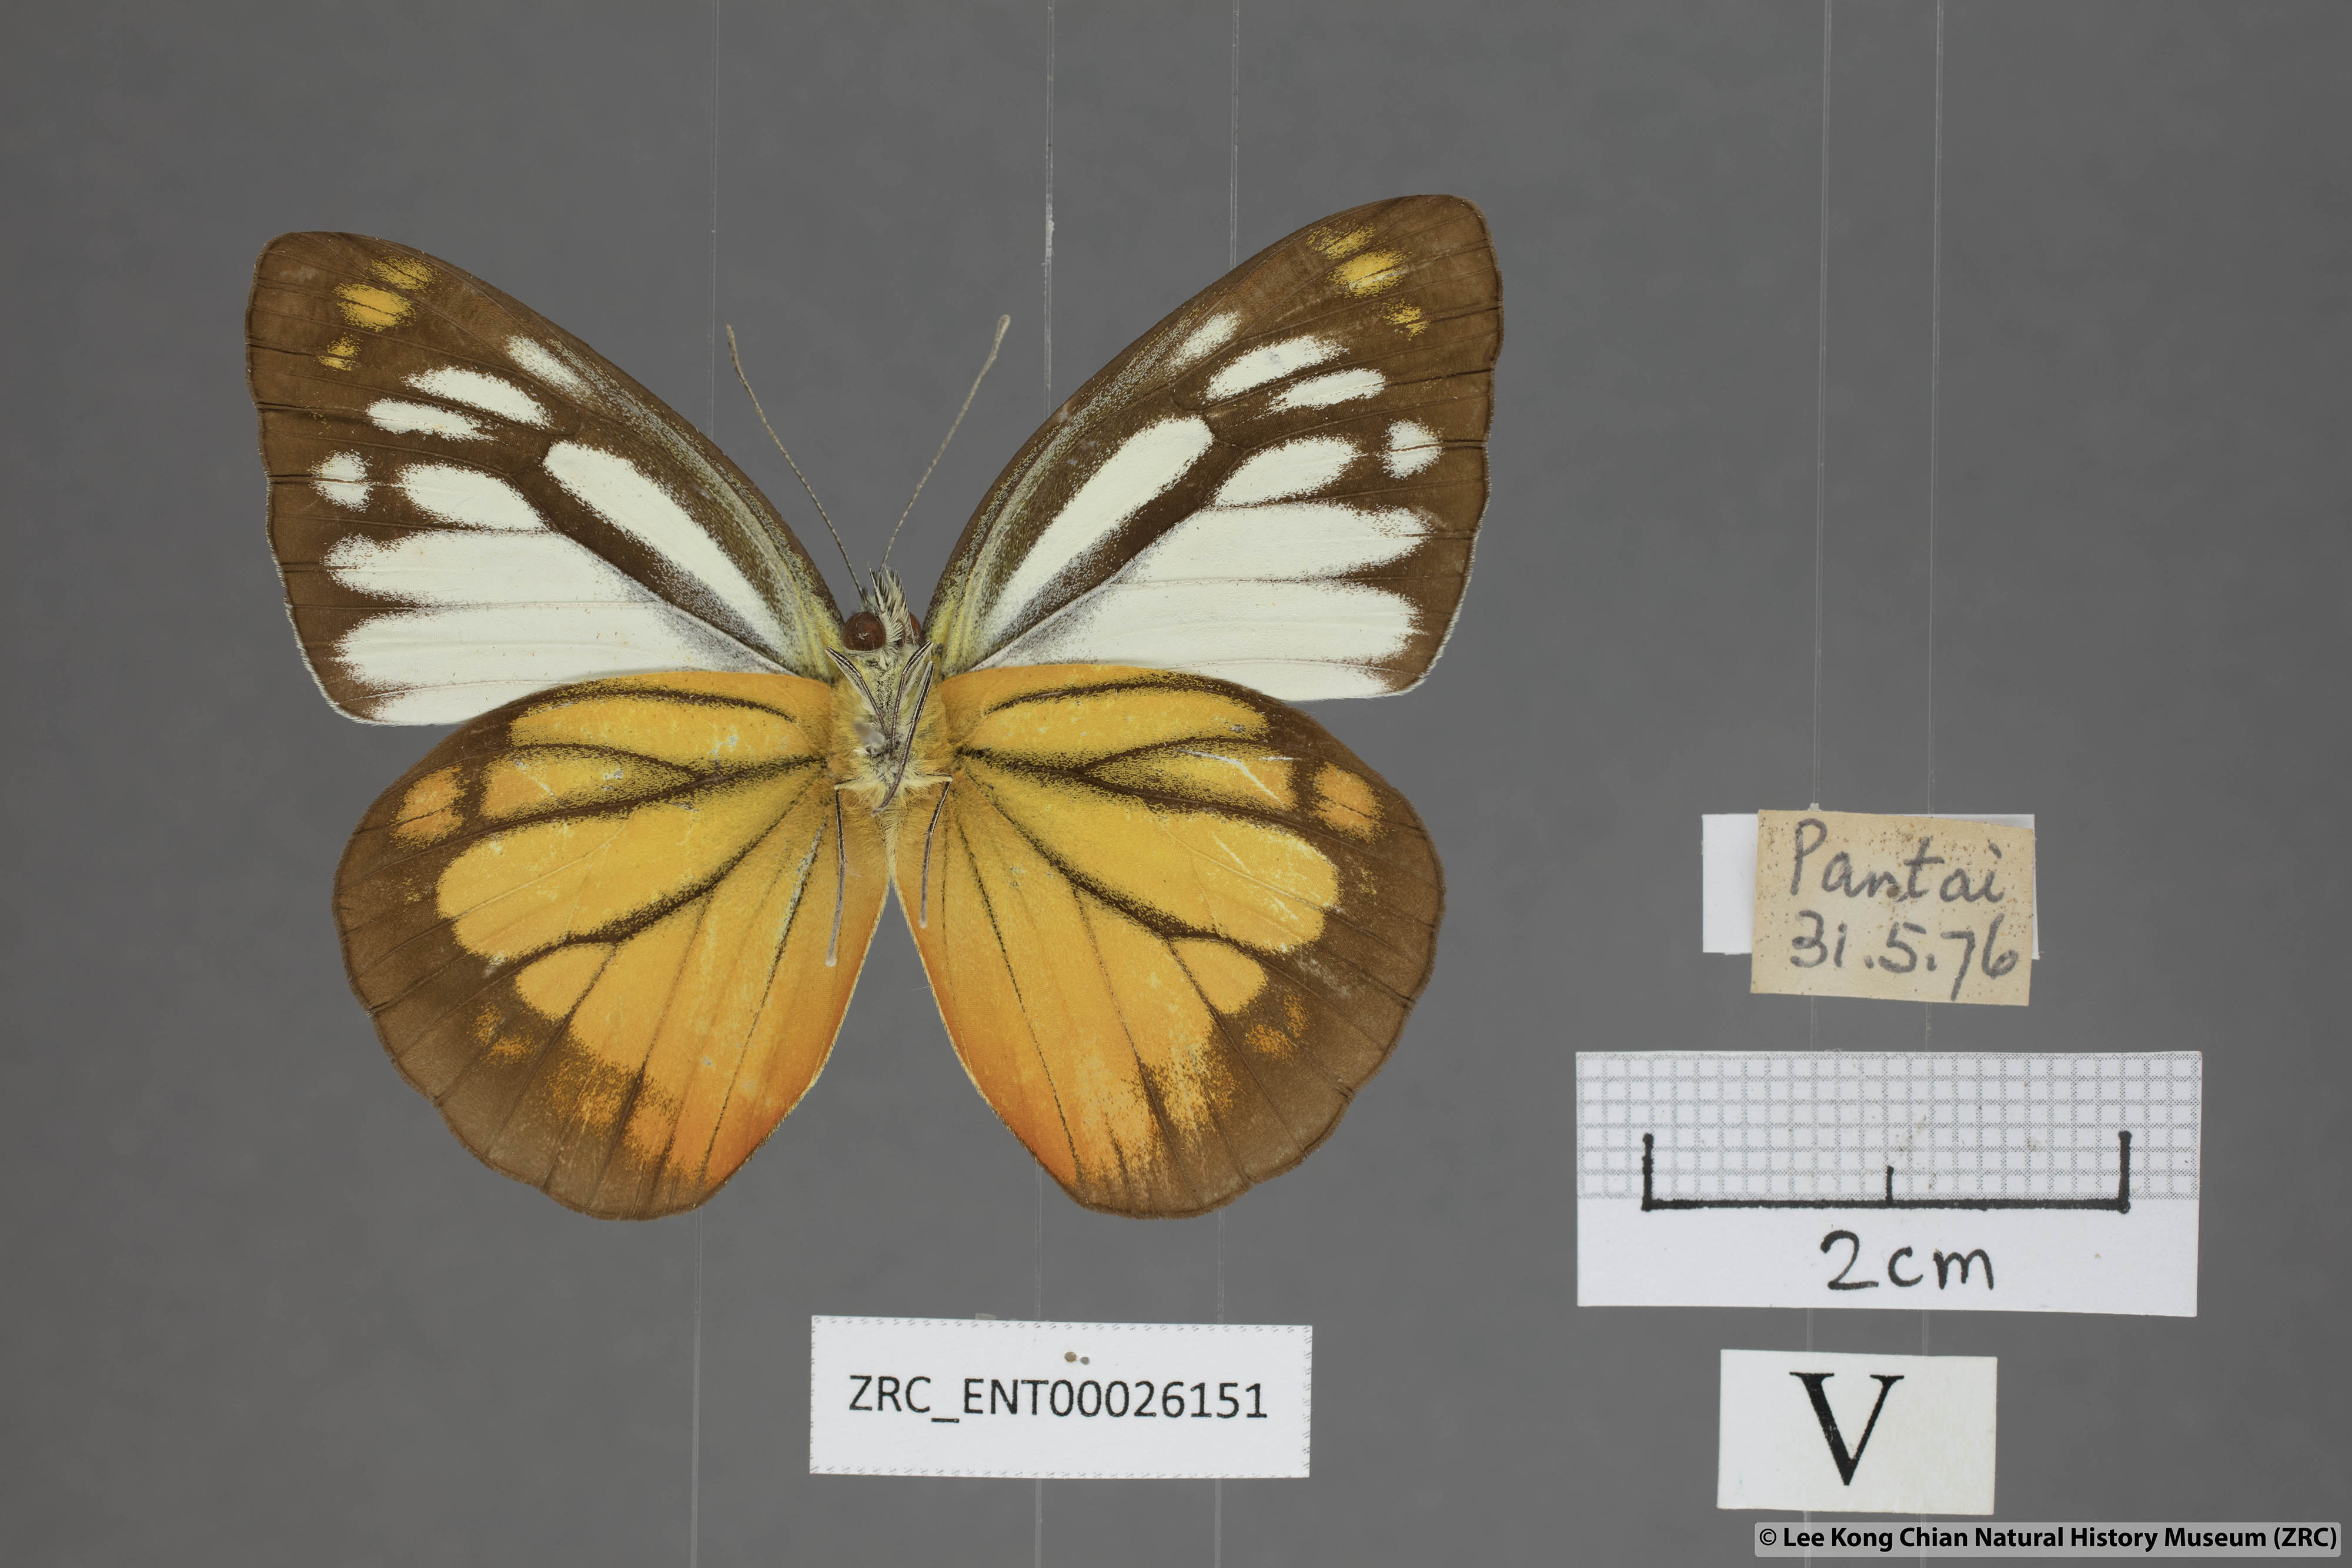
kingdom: Animalia
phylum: Arthropoda
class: Insecta
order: Lepidoptera
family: Pieridae
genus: Cepora
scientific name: Cepora julia
